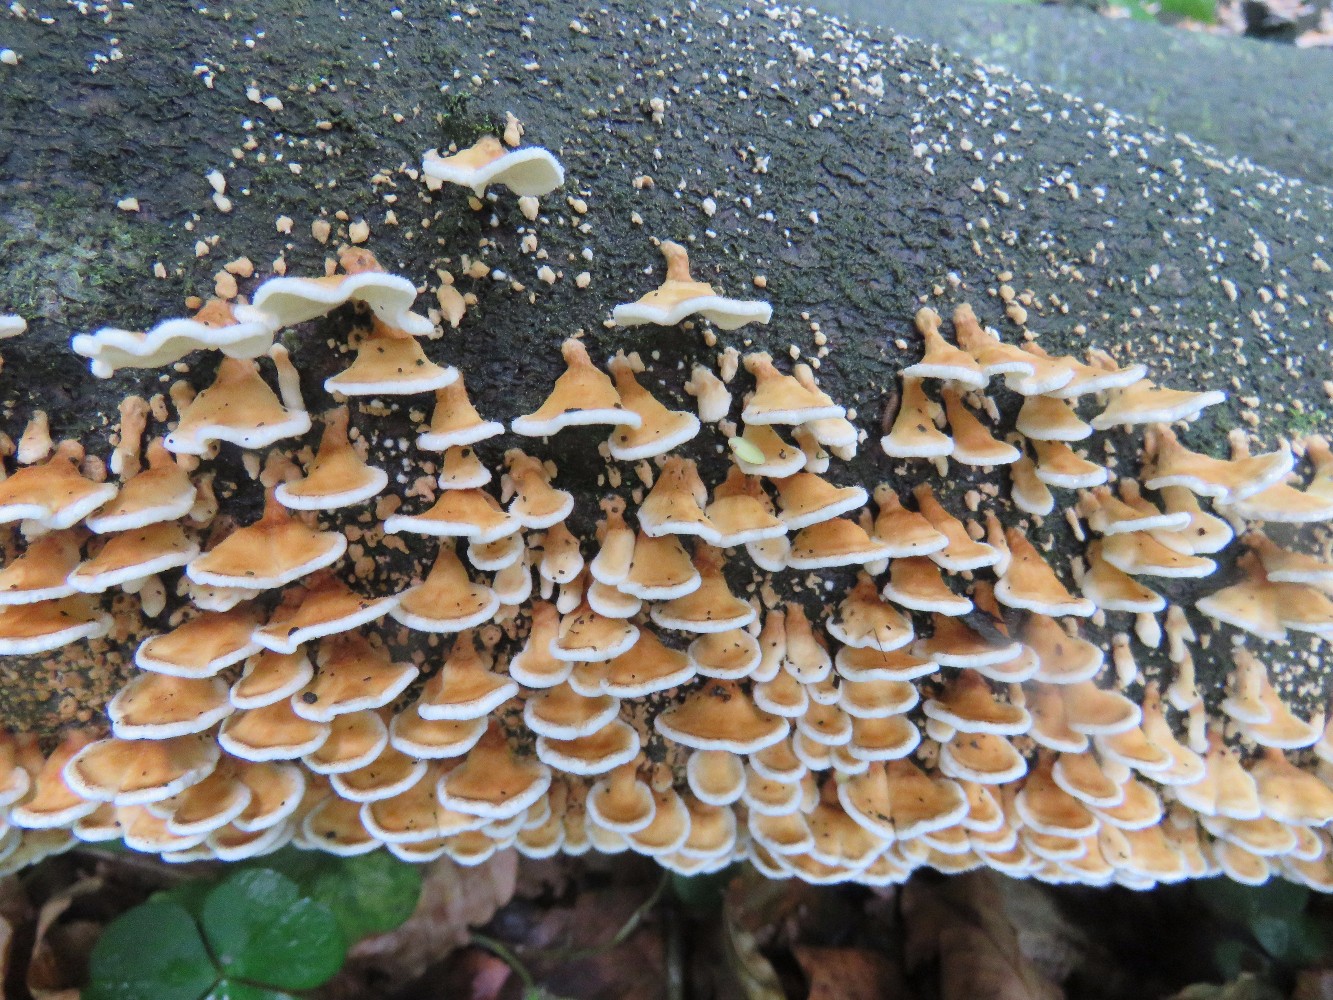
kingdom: Fungi
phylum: Basidiomycota
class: Agaricomycetes
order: Amylocorticiales
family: Amylocorticiaceae
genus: Plicaturopsis
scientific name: Plicaturopsis crispa
